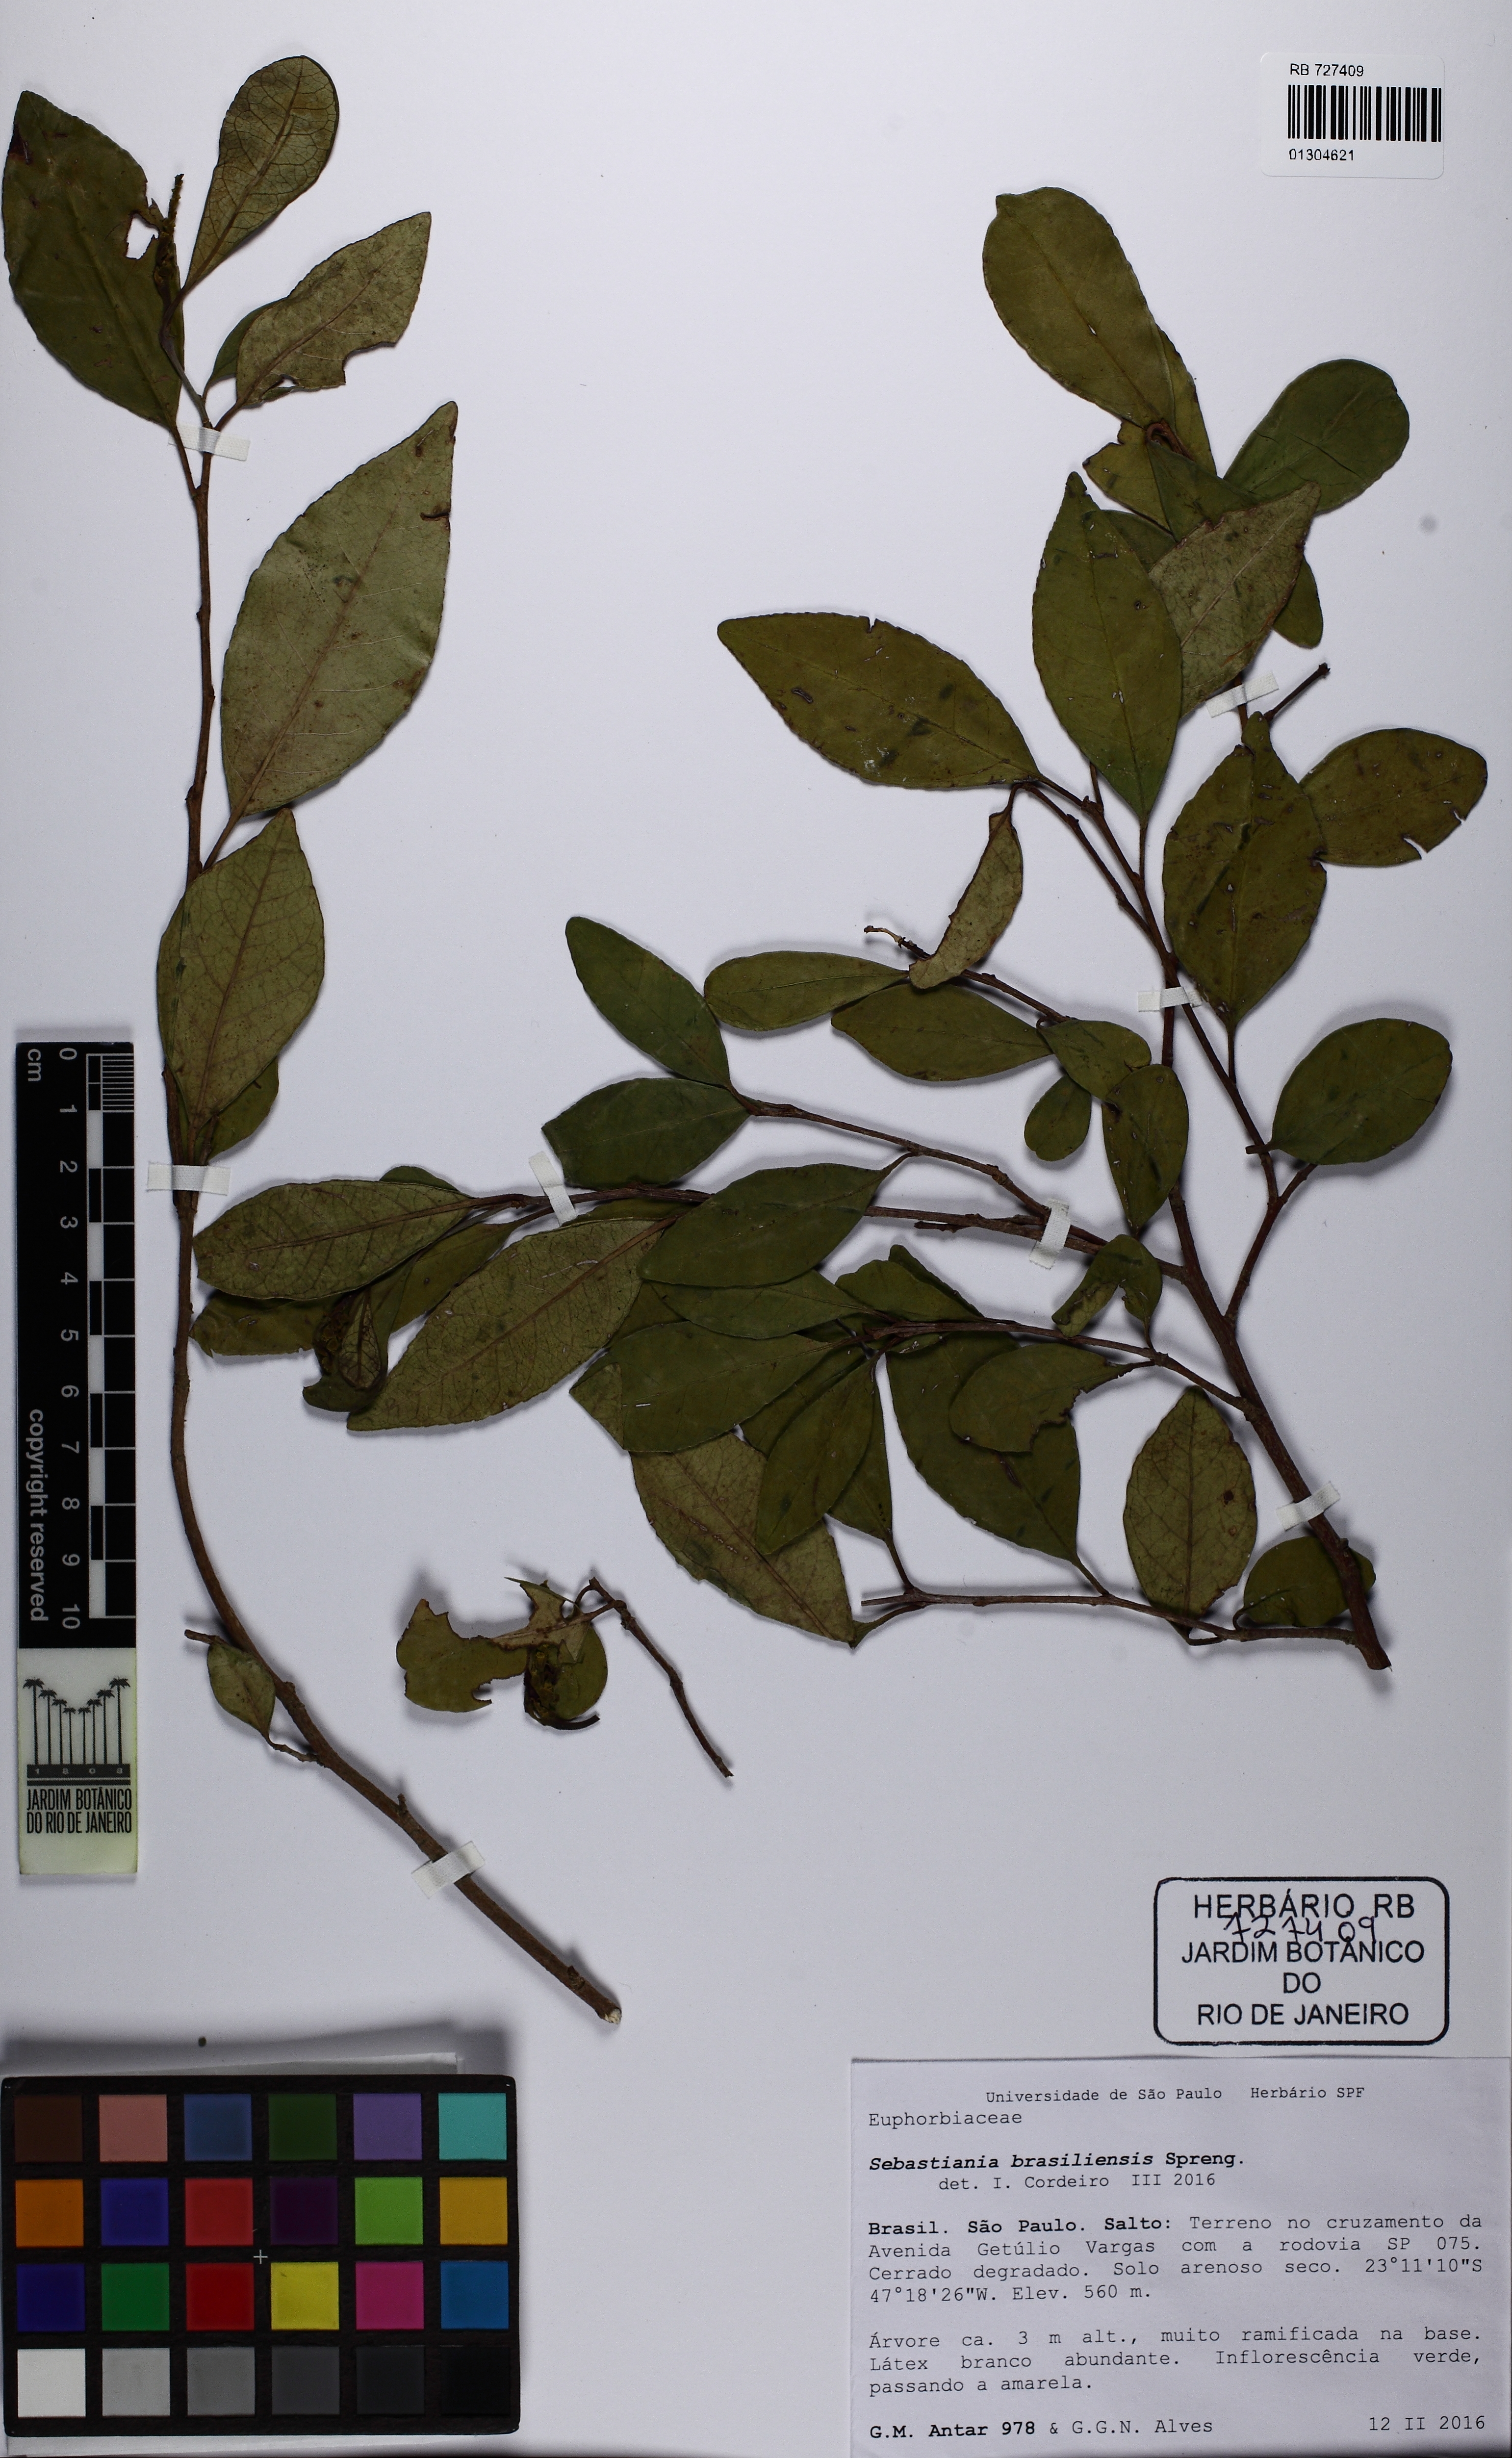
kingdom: Plantae
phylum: Tracheophyta
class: Magnoliopsida
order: Malpighiales
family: Euphorbiaceae
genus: Sebastiania
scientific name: Sebastiania brasiliensis
